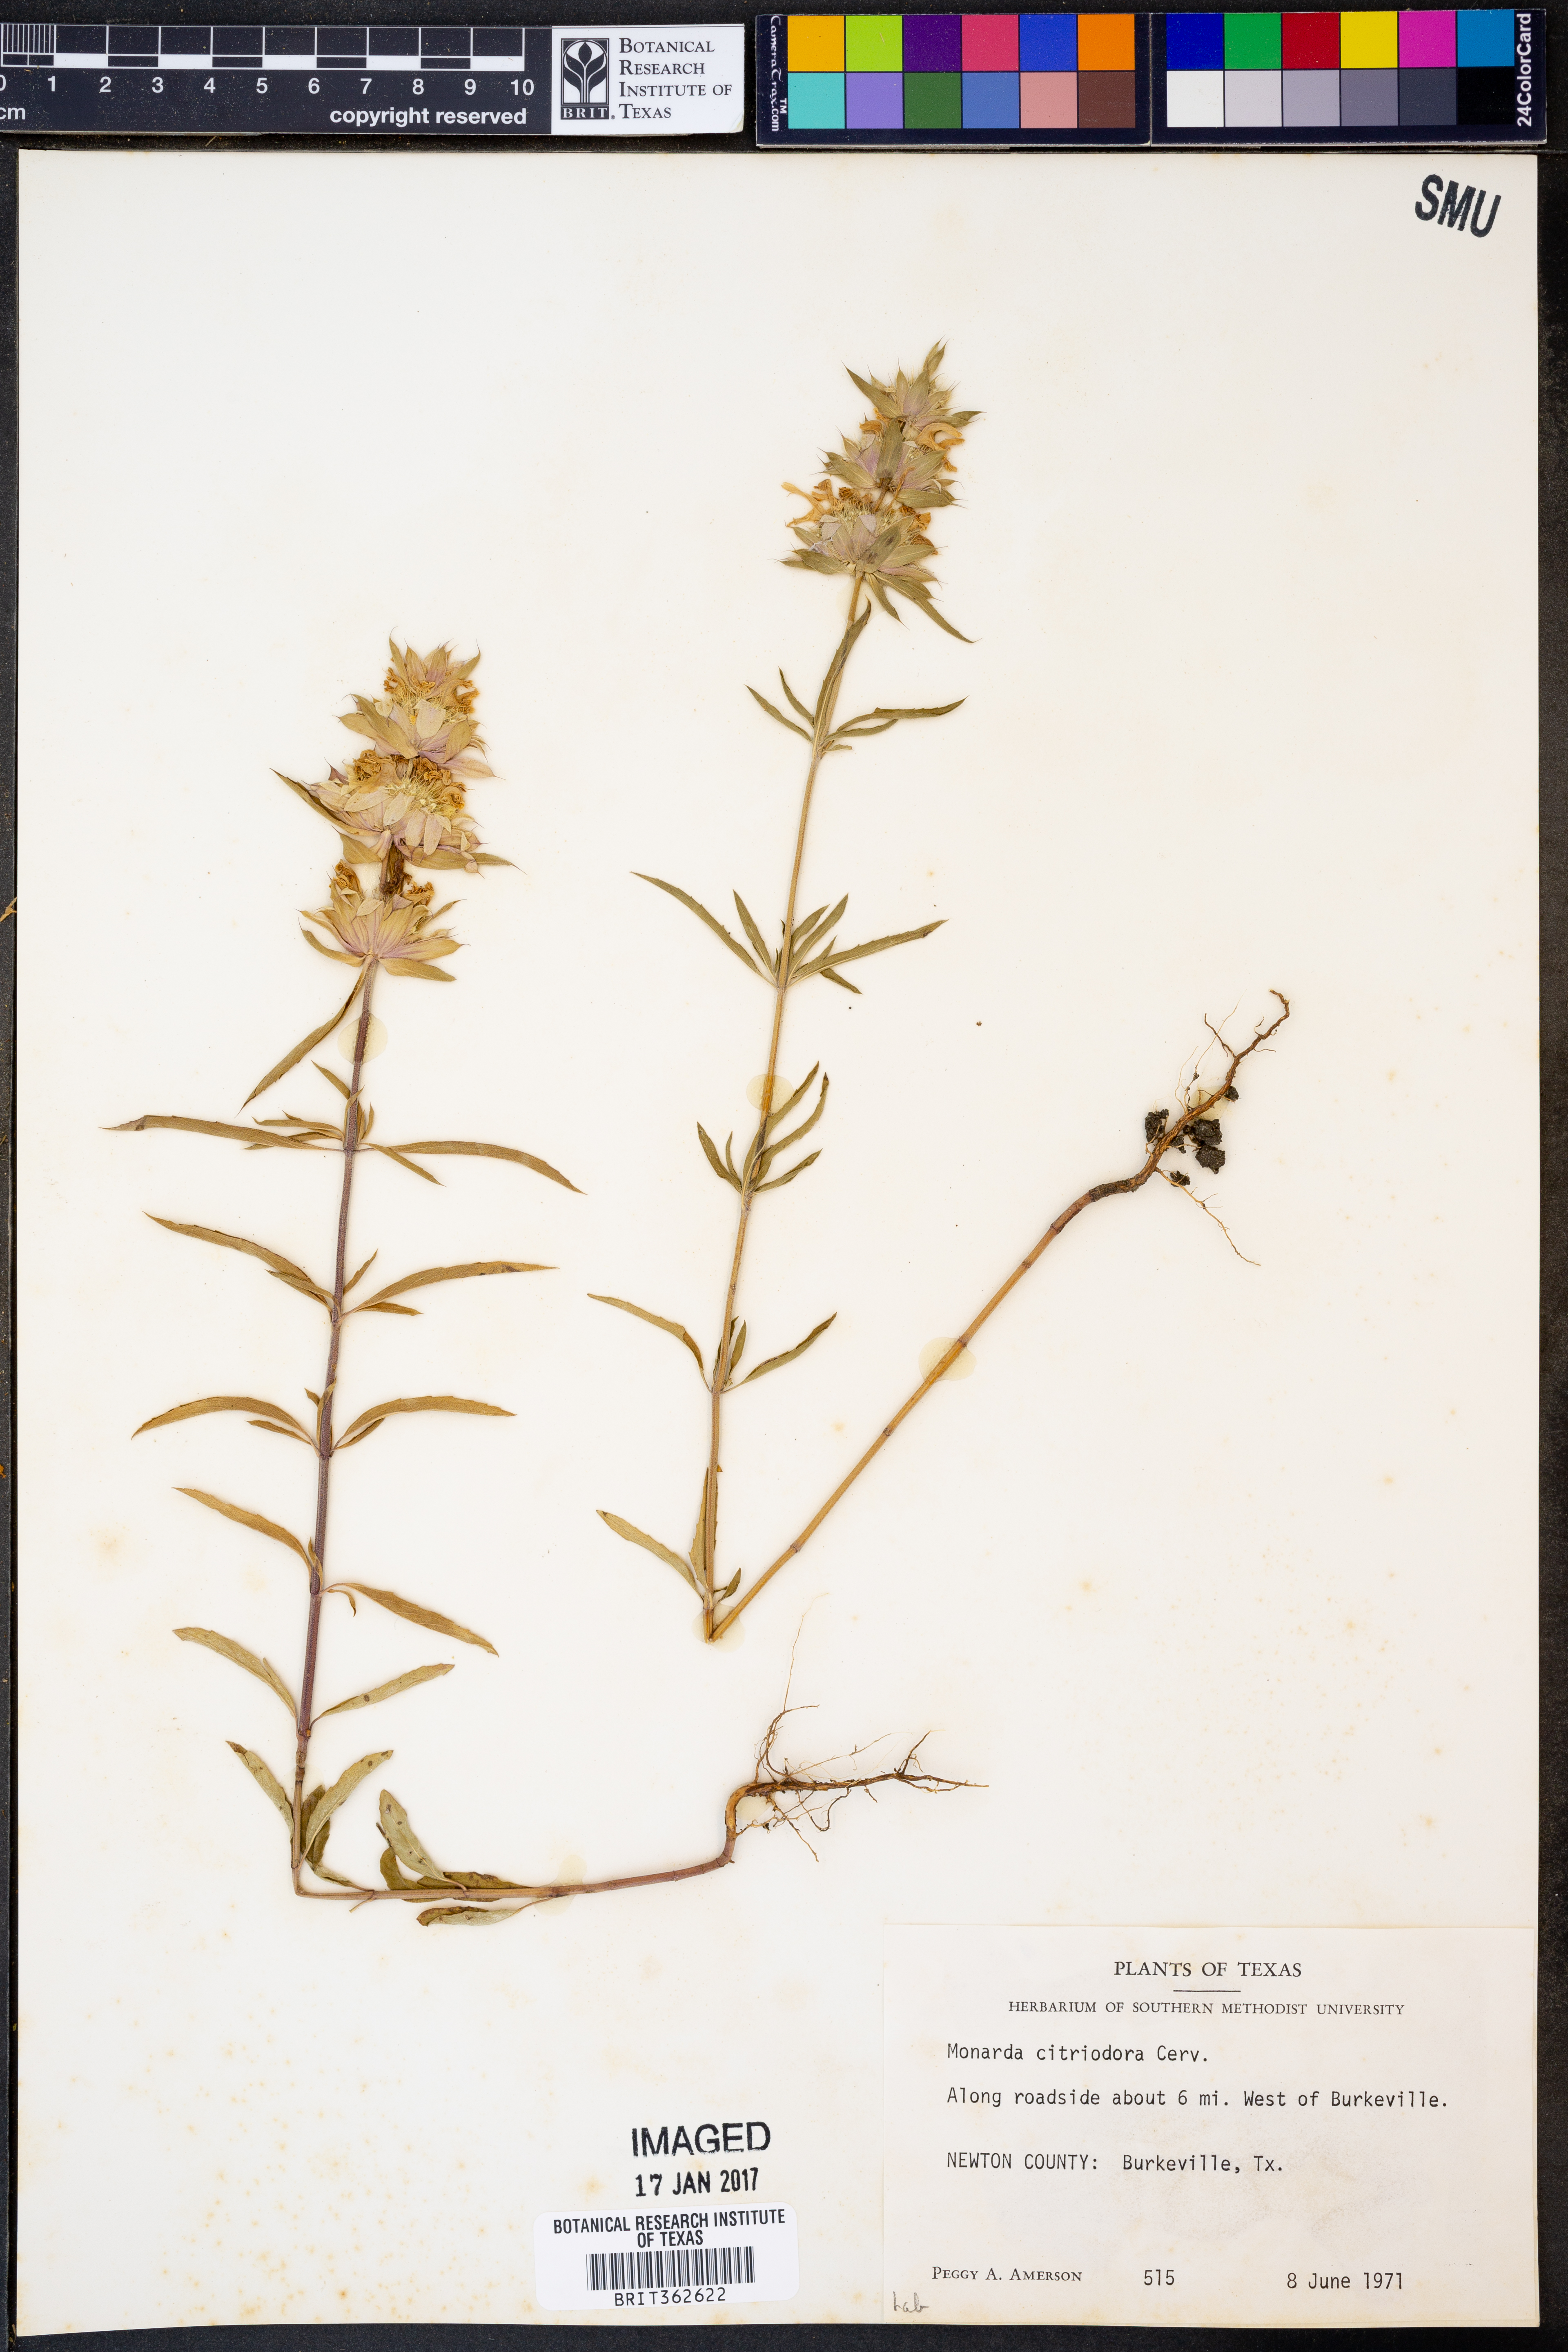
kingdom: Plantae
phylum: Tracheophyta
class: Magnoliopsida
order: Lamiales
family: Lamiaceae
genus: Monarda
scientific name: Monarda citriodora
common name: Lemon beebalm
